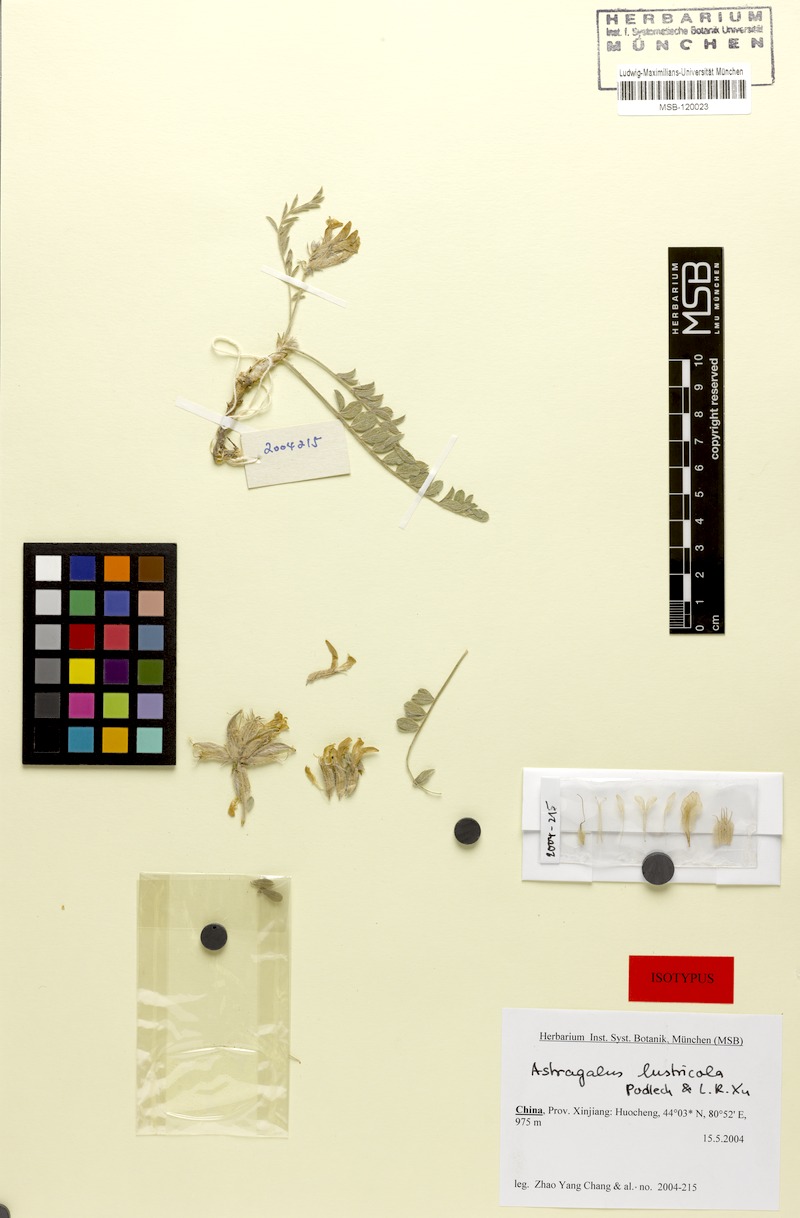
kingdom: Plantae
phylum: Tracheophyta
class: Magnoliopsida
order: Fabales
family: Fabaceae
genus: Astragalus
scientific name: Astragalus lustricola
